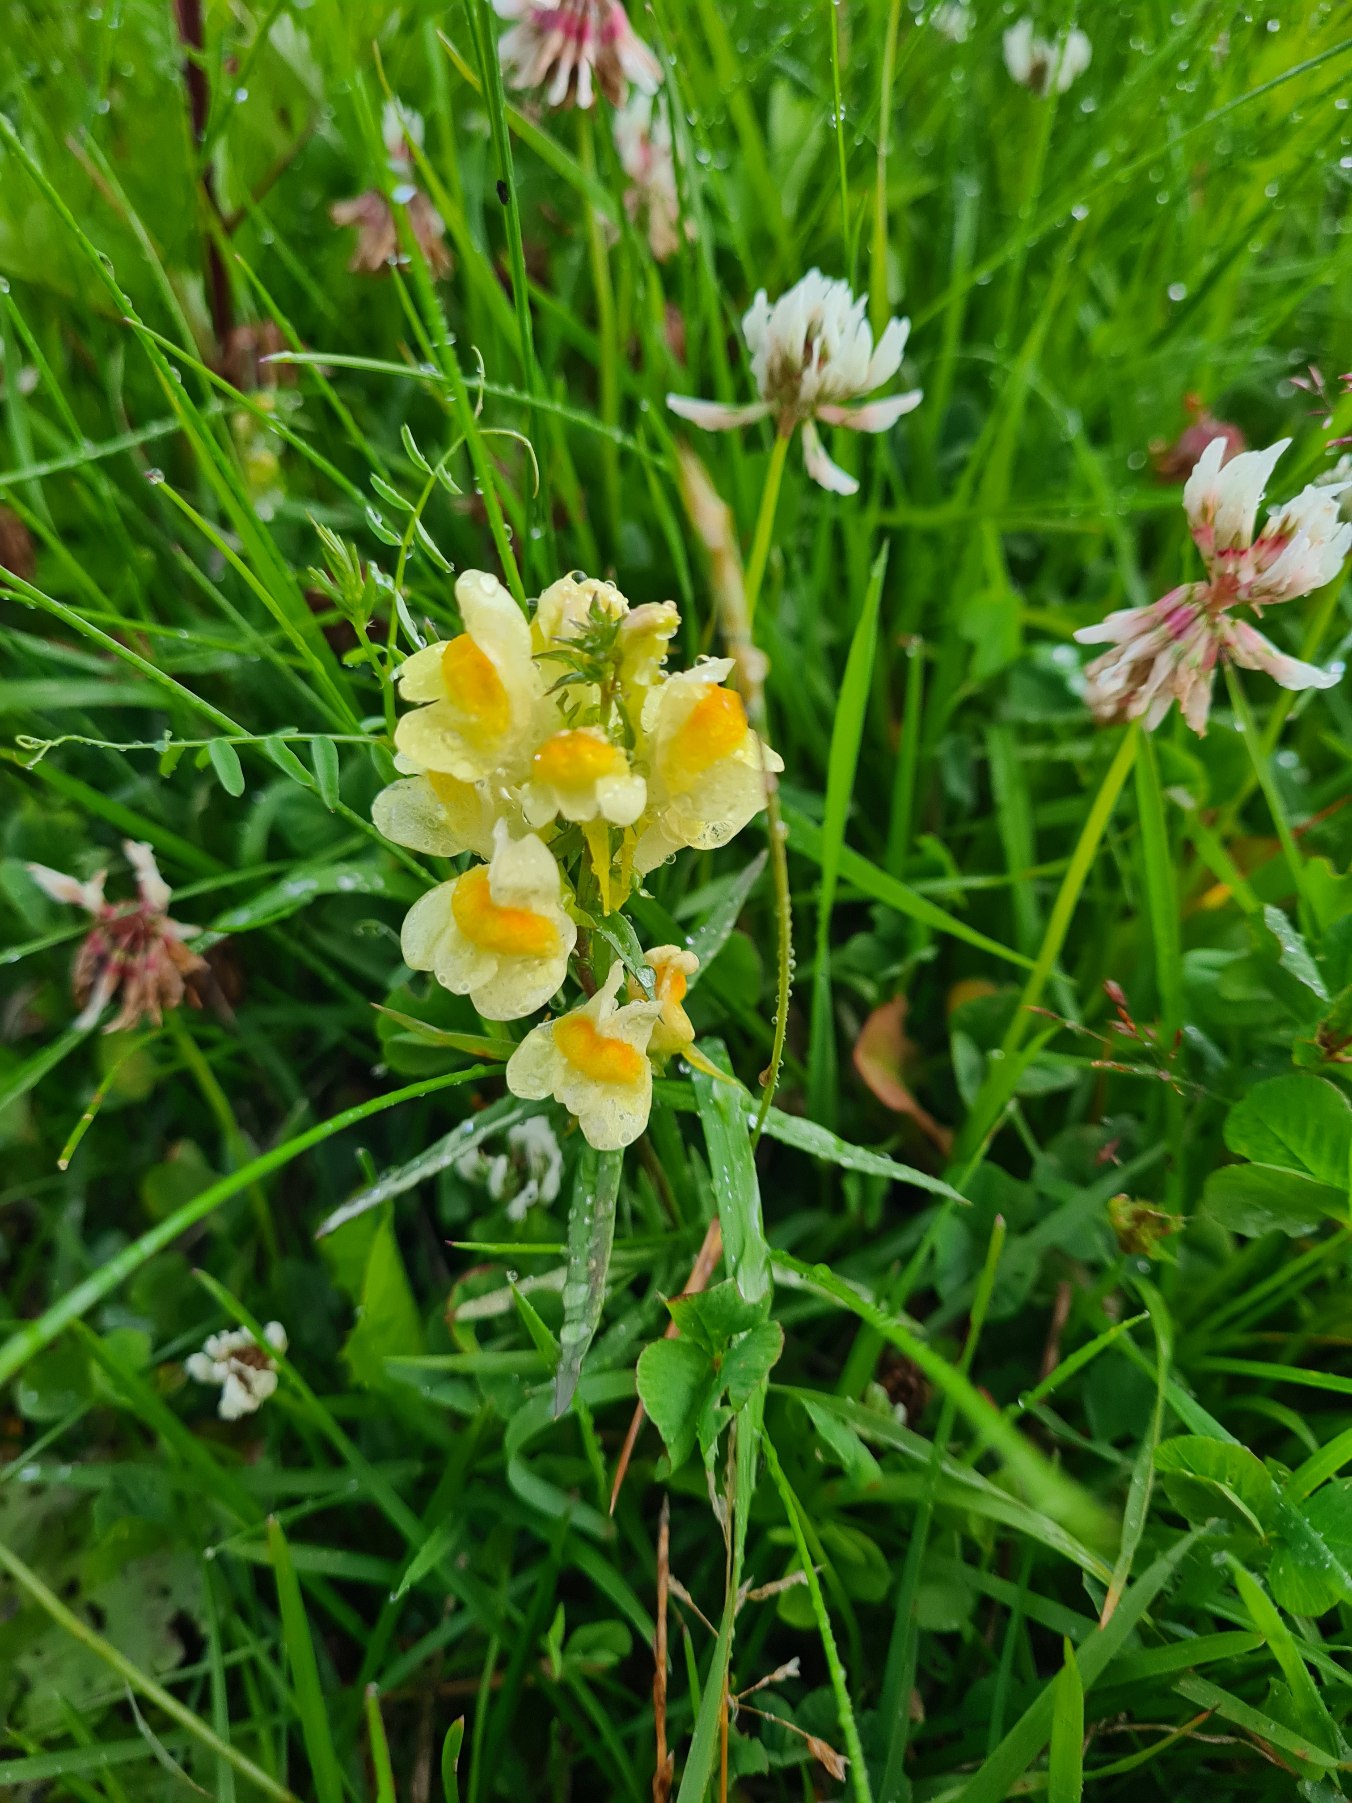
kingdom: Plantae
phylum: Tracheophyta
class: Magnoliopsida
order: Lamiales
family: Plantaginaceae
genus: Linaria
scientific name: Linaria vulgaris
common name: Almindelig torskemund
